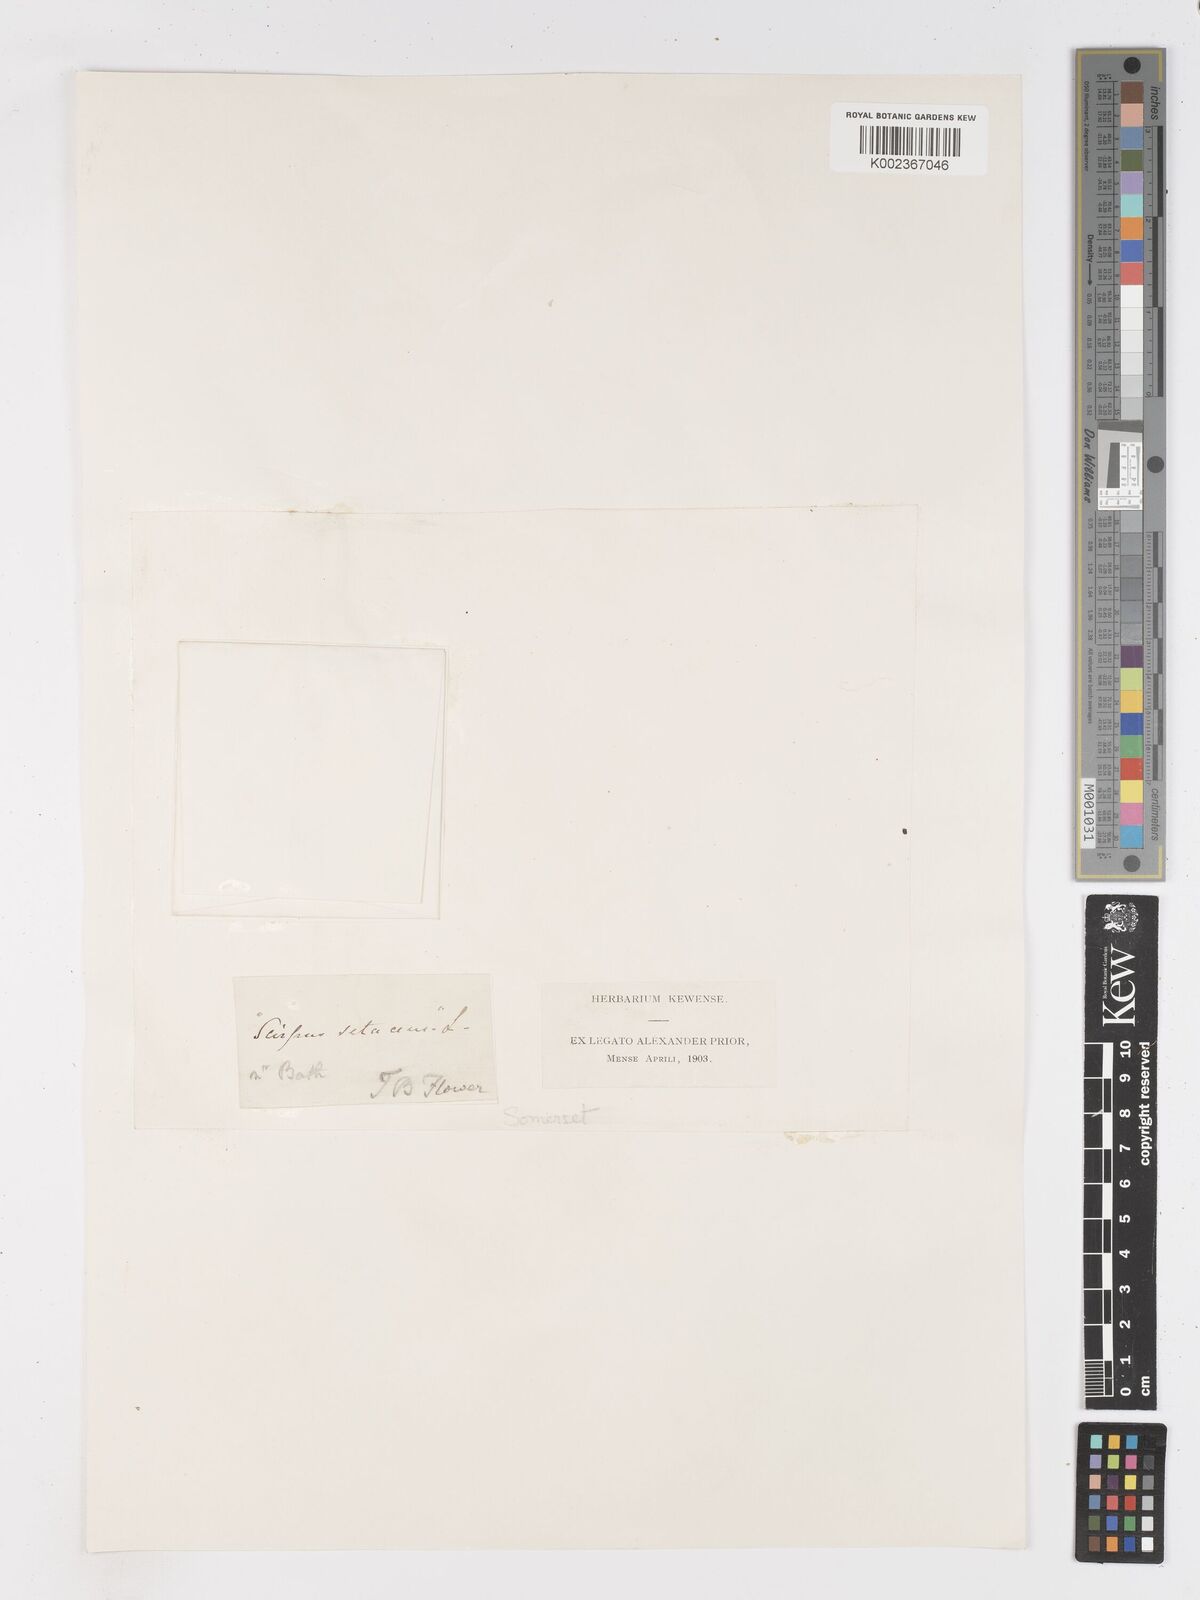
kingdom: Plantae
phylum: Tracheophyta
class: Liliopsida
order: Poales
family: Cyperaceae
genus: Isolepis
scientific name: Isolepis setacea
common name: Bristle club-rush
